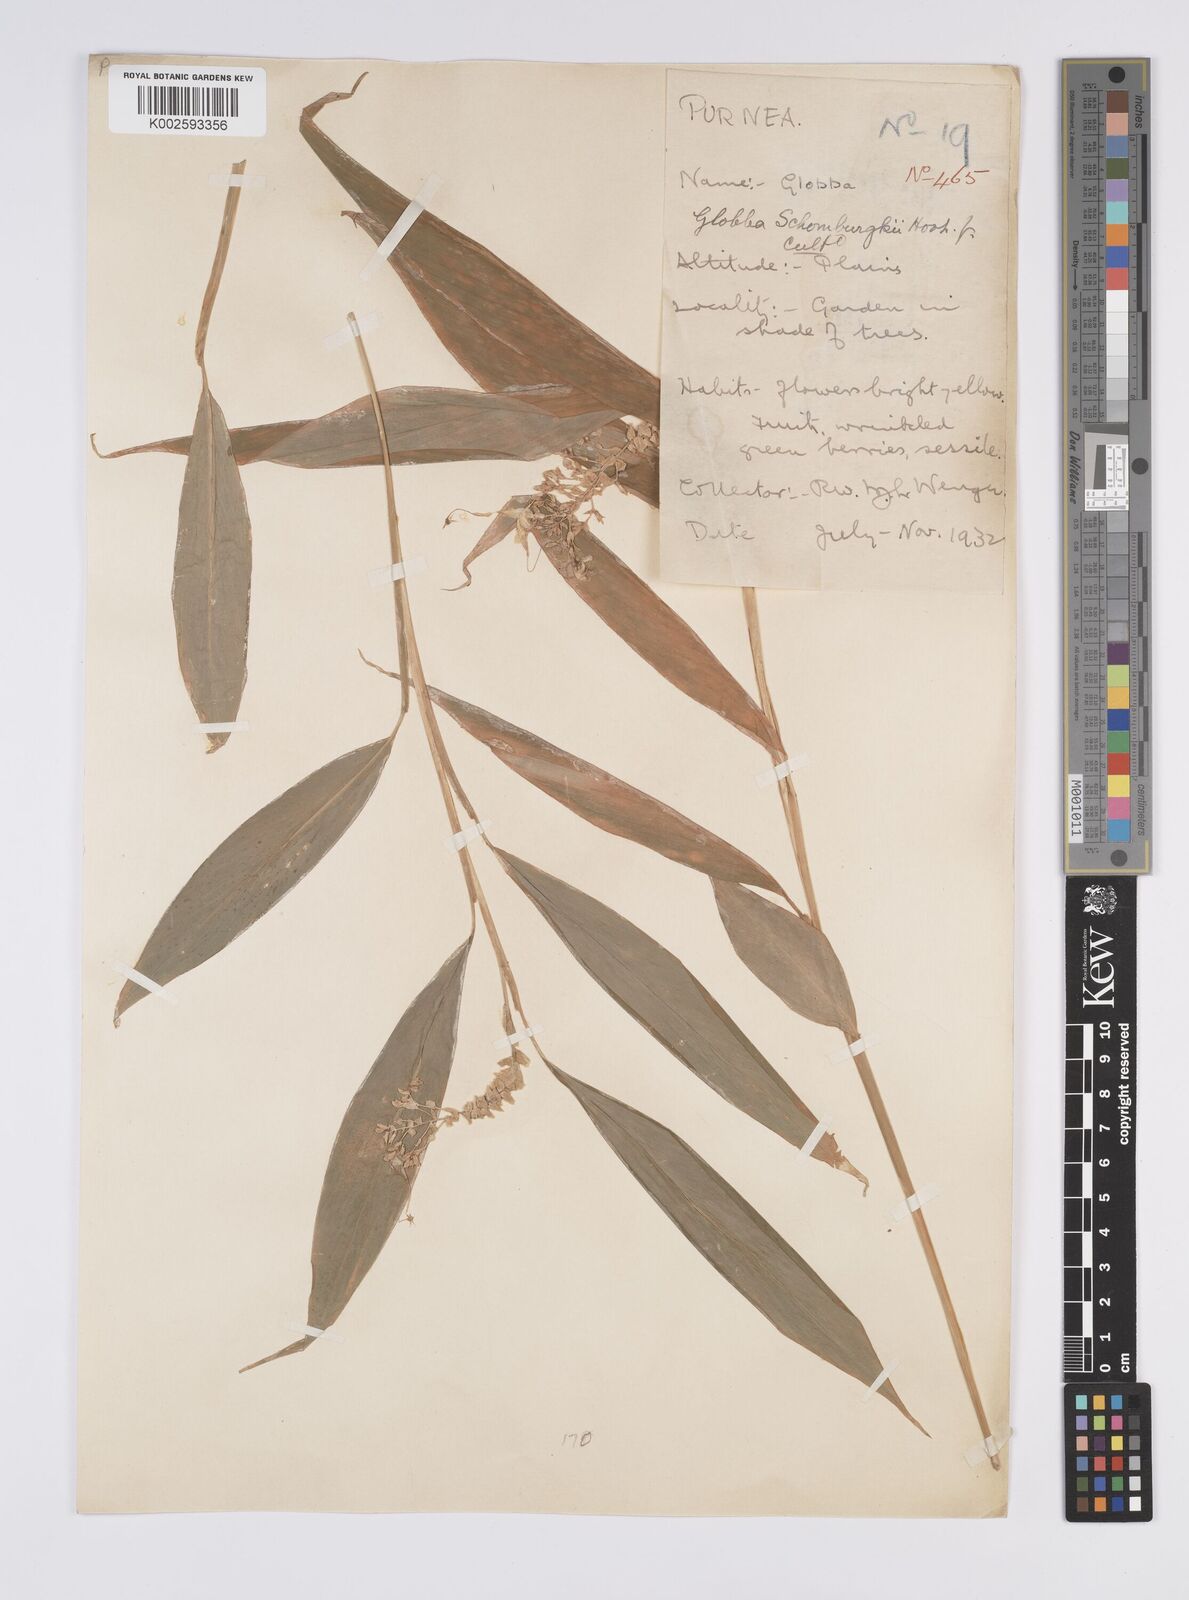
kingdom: Plantae
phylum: Tracheophyta
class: Liliopsida
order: Zingiberales
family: Zingiberaceae
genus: Globba
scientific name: Globba schomburgkii
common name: Dancing girl ginger
